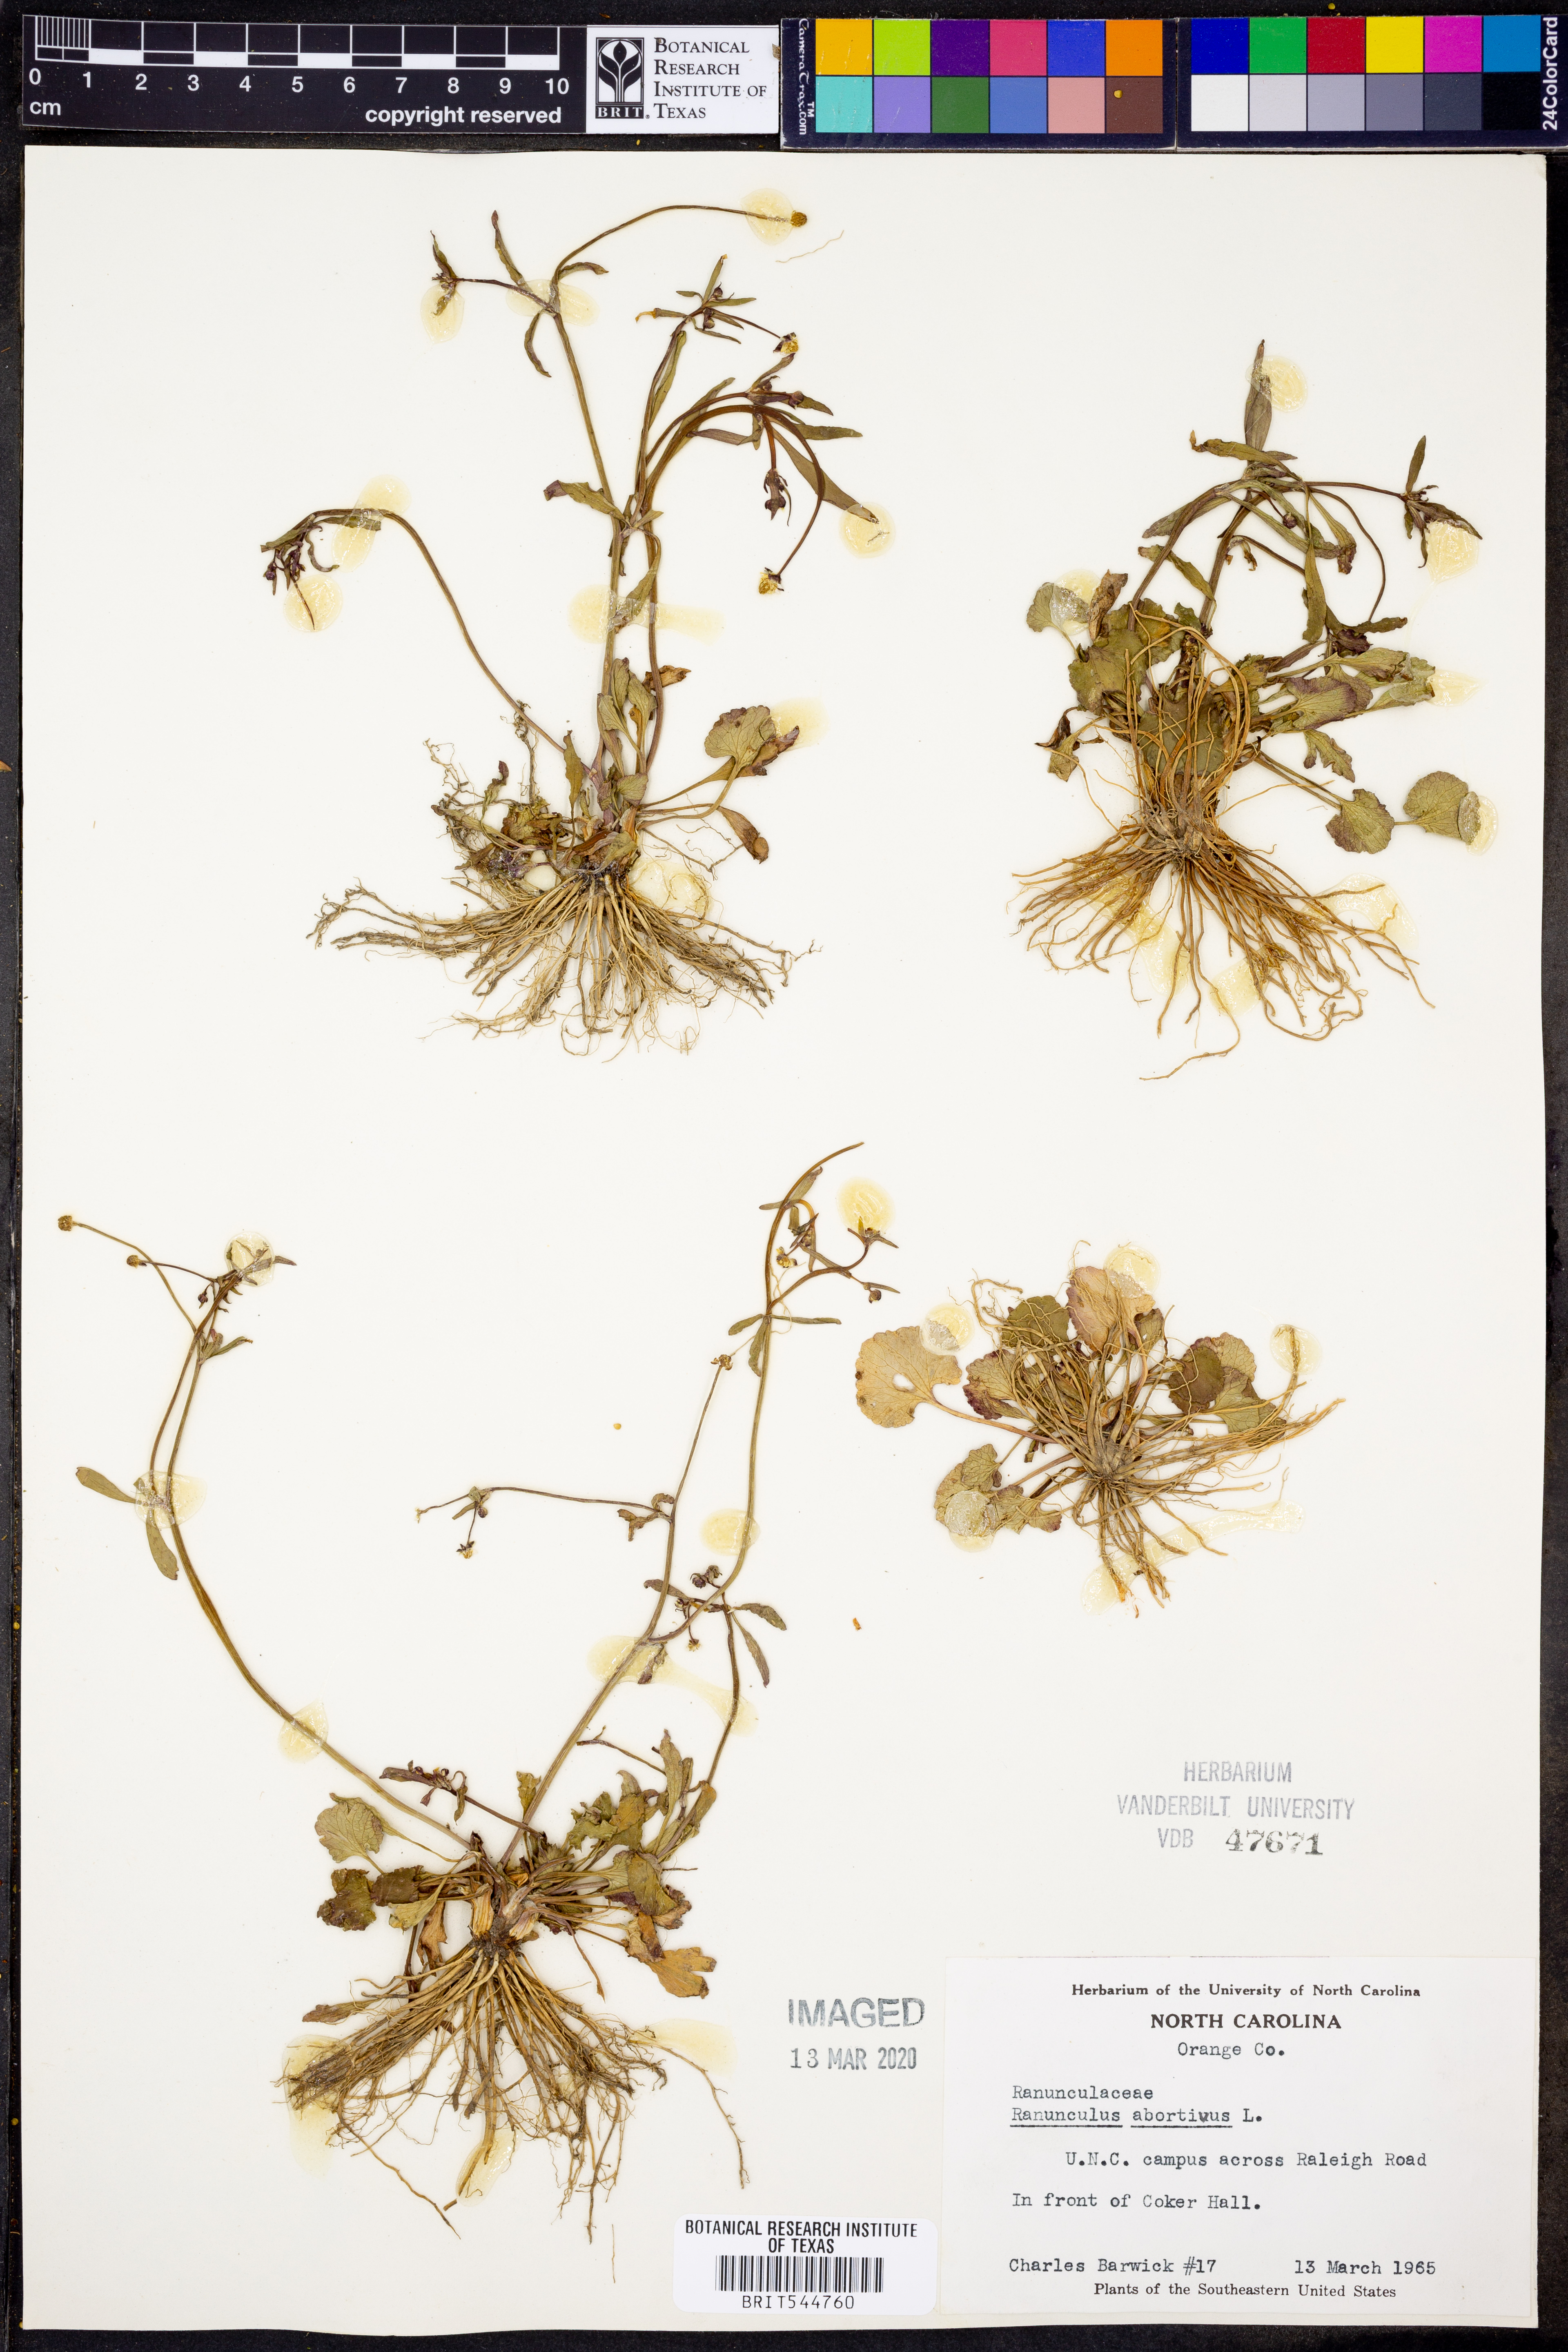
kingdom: Plantae
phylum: Tracheophyta
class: Magnoliopsida
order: Ranunculales
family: Ranunculaceae
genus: Ranunculus
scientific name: Ranunculus abortivus
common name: Early wood buttercup
